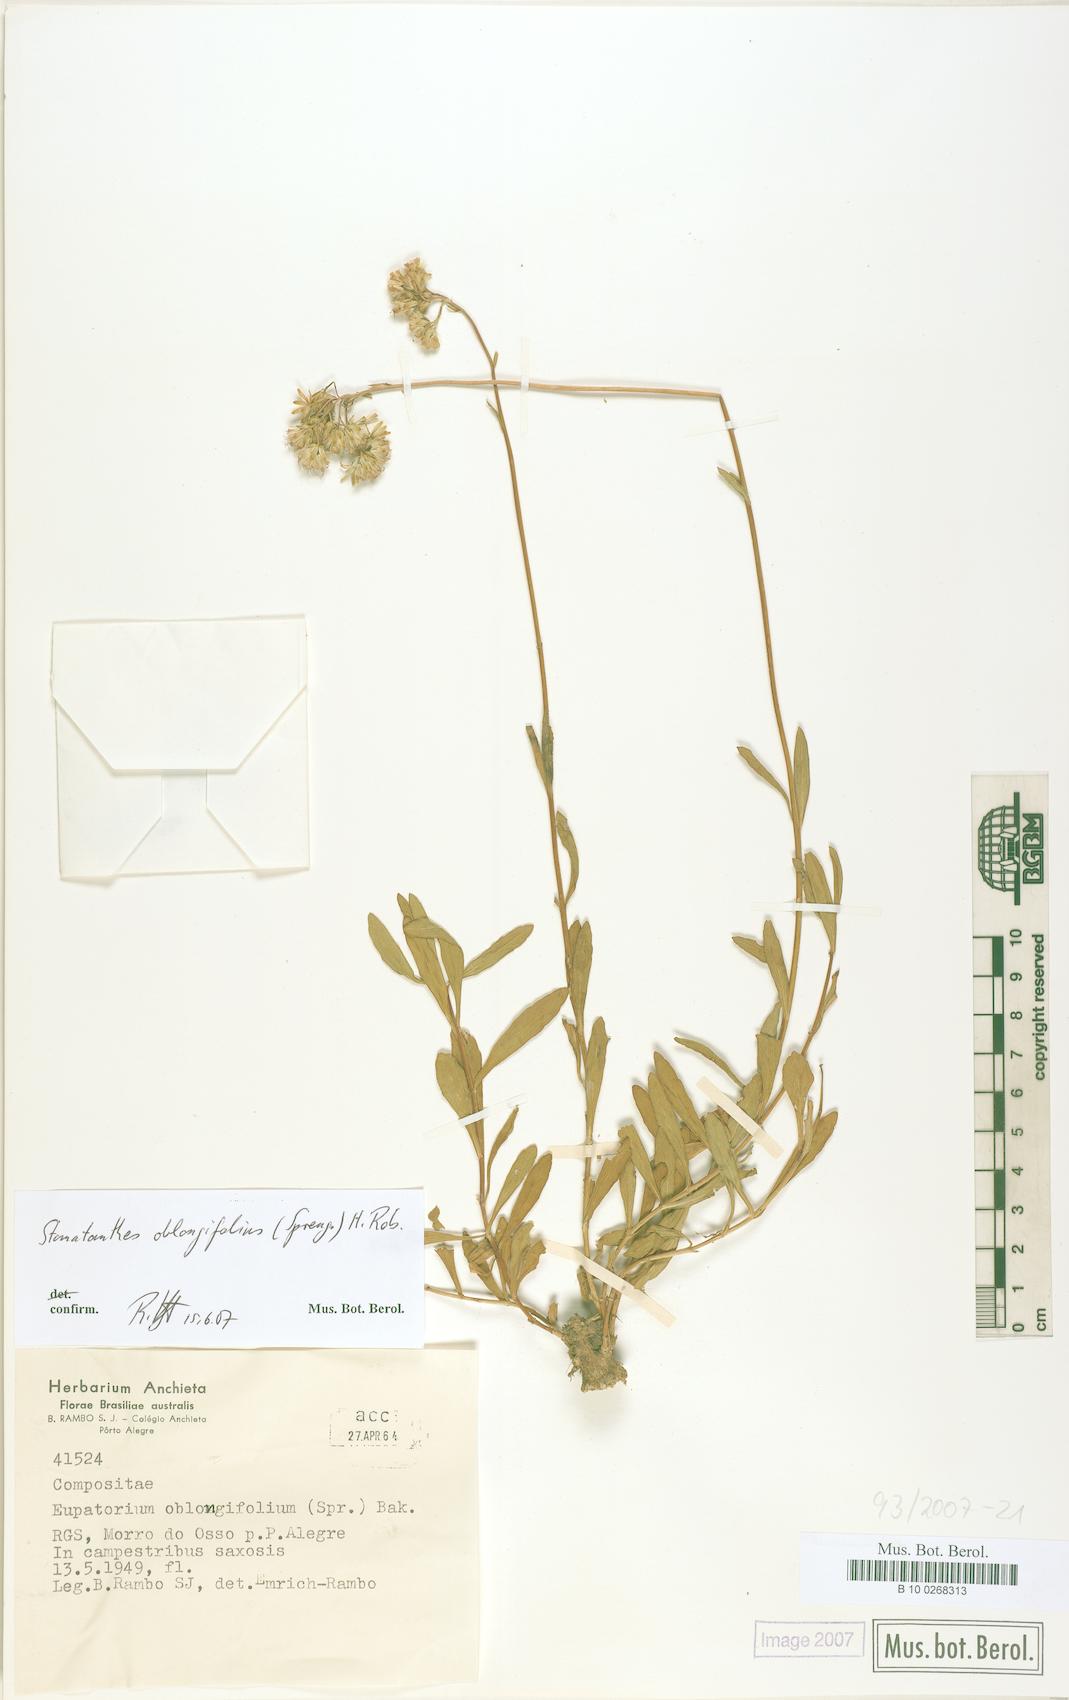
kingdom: Plantae
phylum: Tracheophyta
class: Magnoliopsida
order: Asterales
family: Asteraceae
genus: Stomatanthes
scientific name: Stomatanthes oblongifolius
